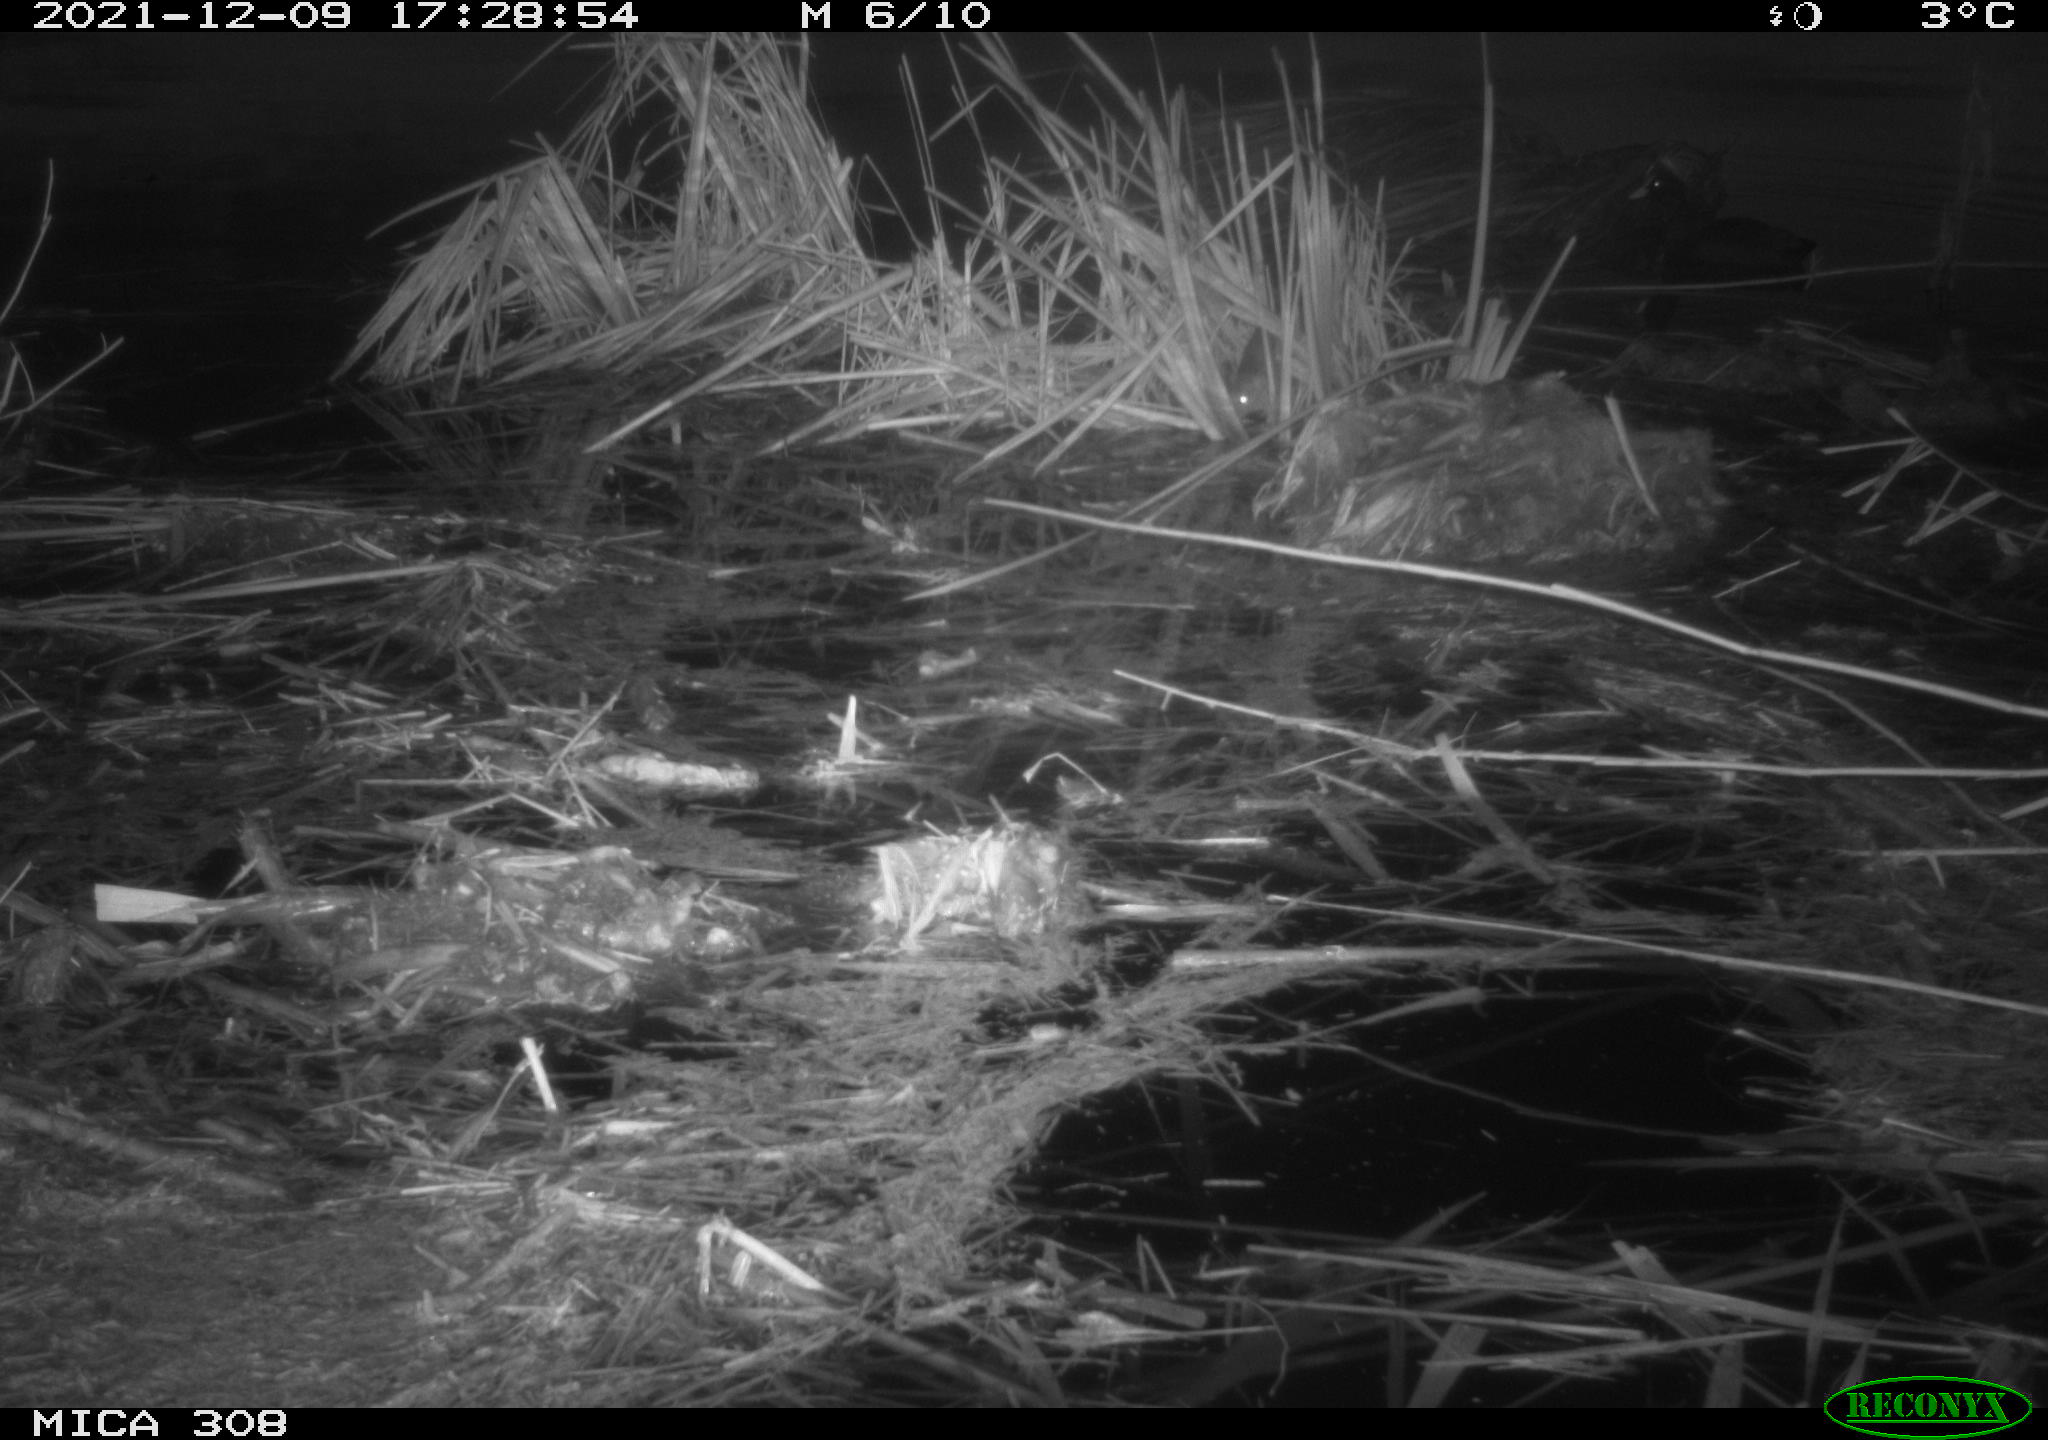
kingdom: Animalia
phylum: Chordata
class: Aves
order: Gruiformes
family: Rallidae
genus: Fulica
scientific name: Fulica atra
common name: Eurasian coot
